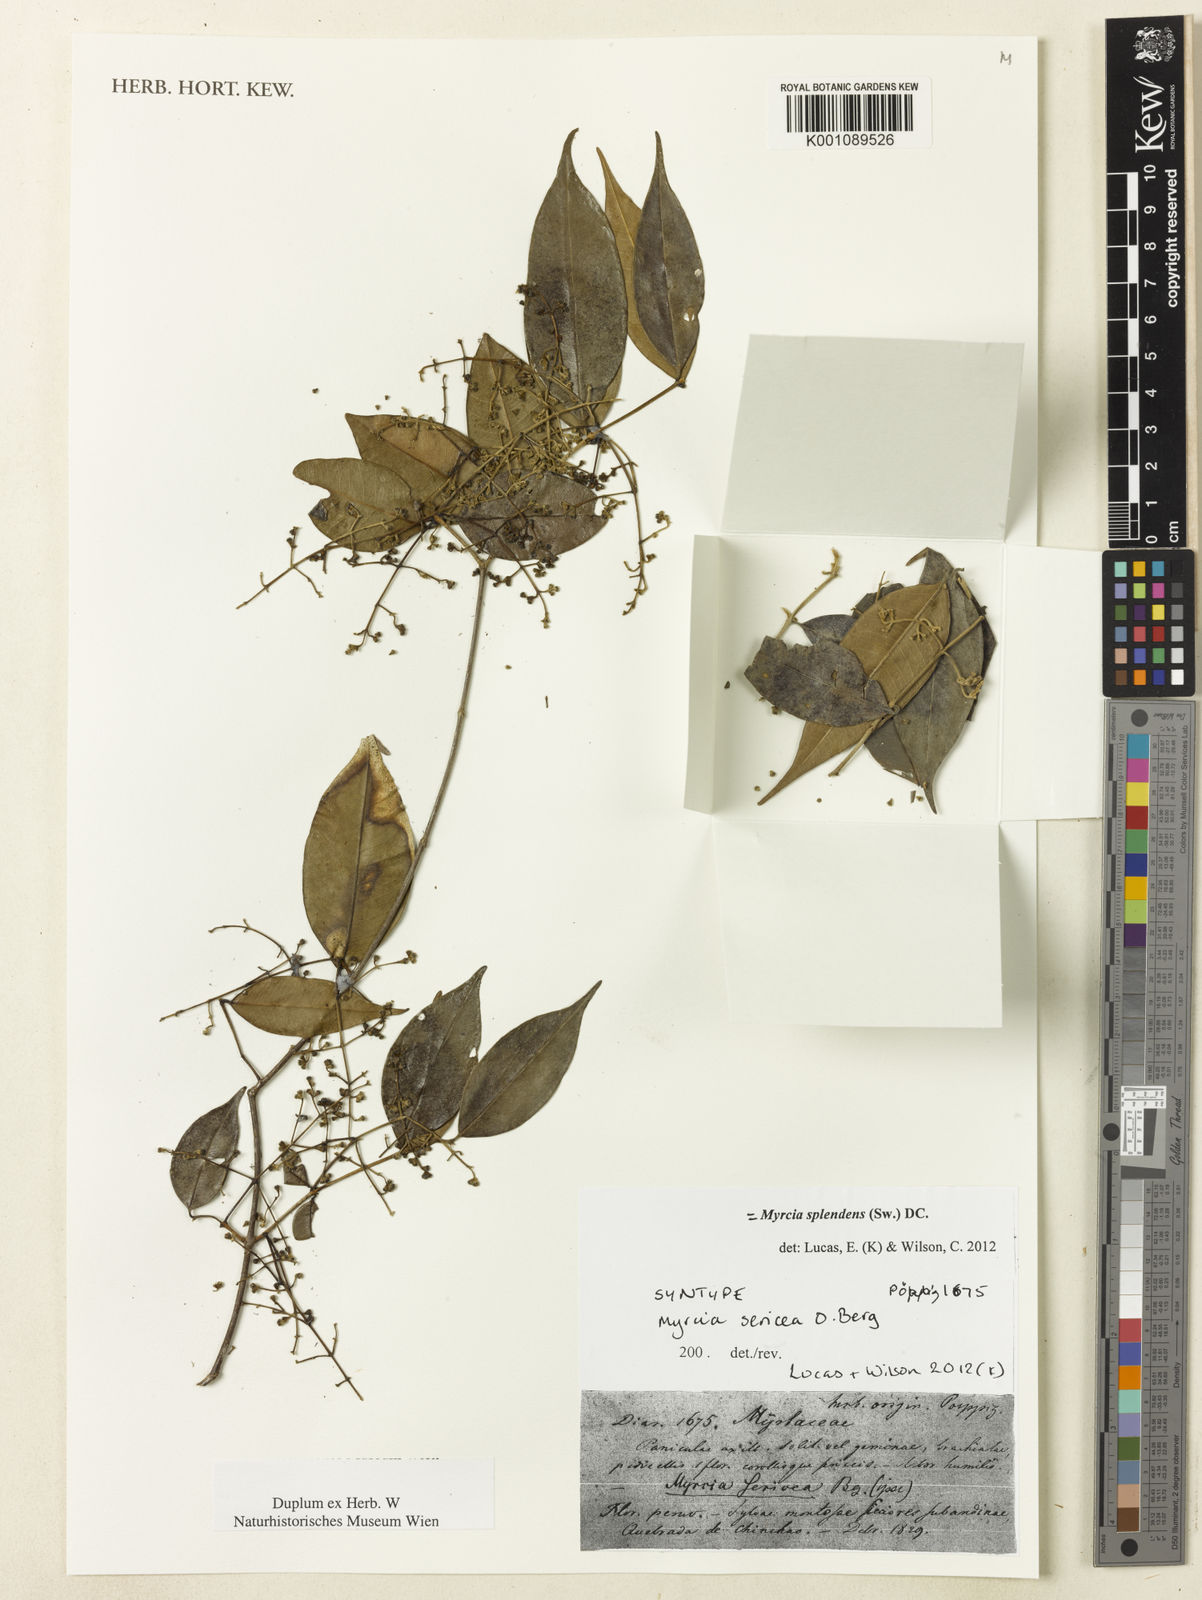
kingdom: Plantae
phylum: Tracheophyta
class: Magnoliopsida
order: Myrtales
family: Myrtaceae
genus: Myrcia
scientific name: Myrcia splendens
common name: Surinam cherry
